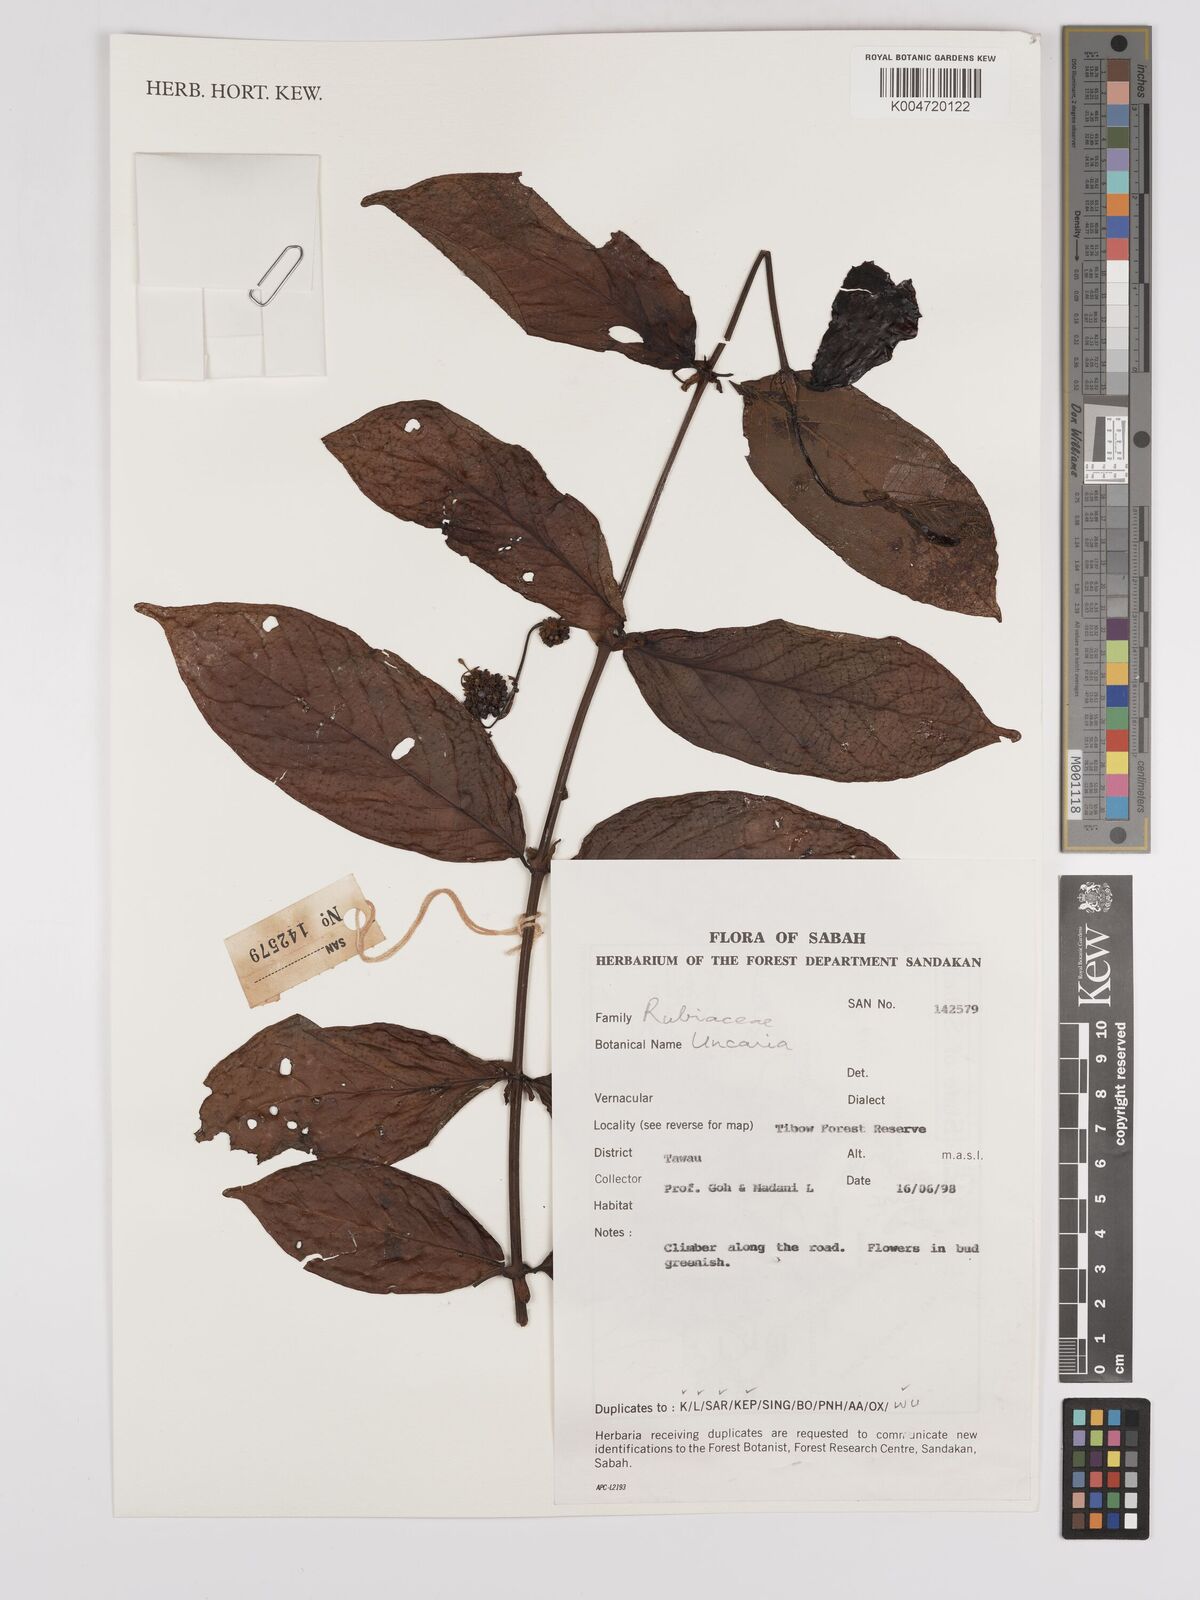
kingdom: Plantae
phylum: Tracheophyta
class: Magnoliopsida
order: Gentianales
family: Rubiaceae
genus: Uncaria
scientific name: Uncaria
